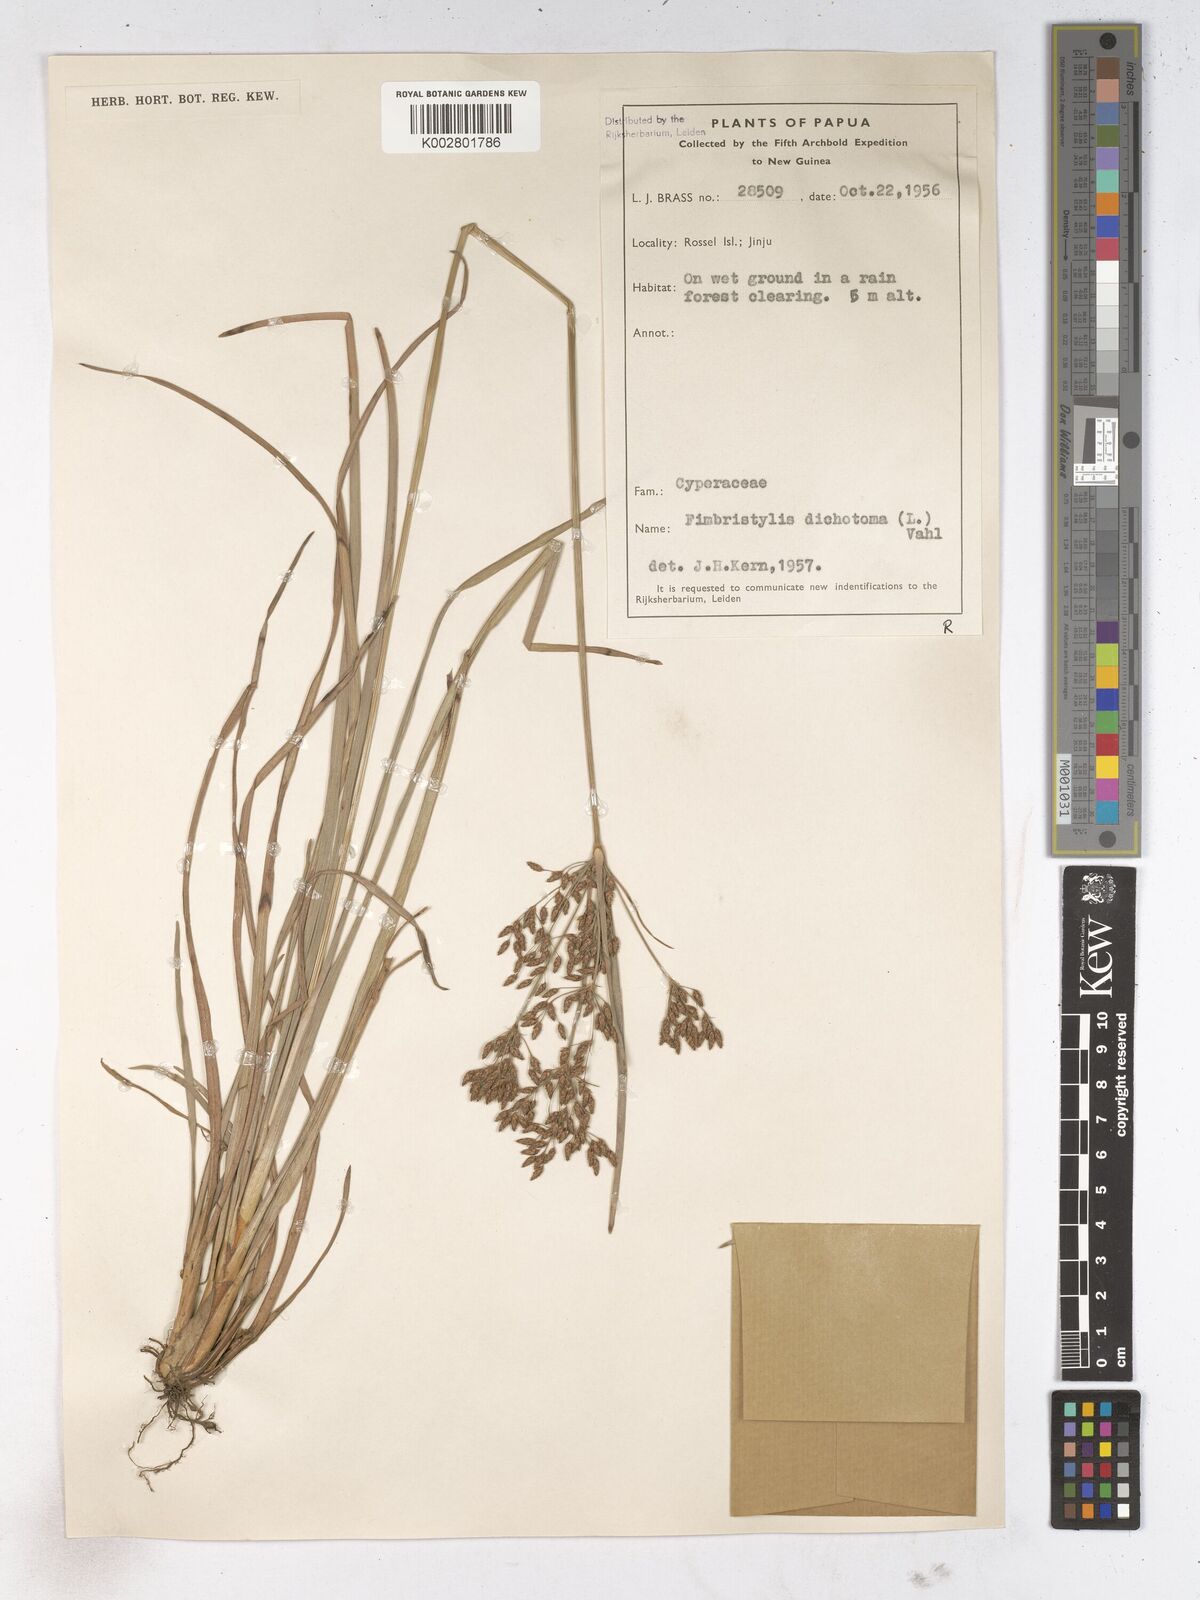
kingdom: Plantae
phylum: Tracheophyta
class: Liliopsida
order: Poales
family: Cyperaceae
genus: Fimbristylis
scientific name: Fimbristylis dichotoma
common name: Forked fimbry
